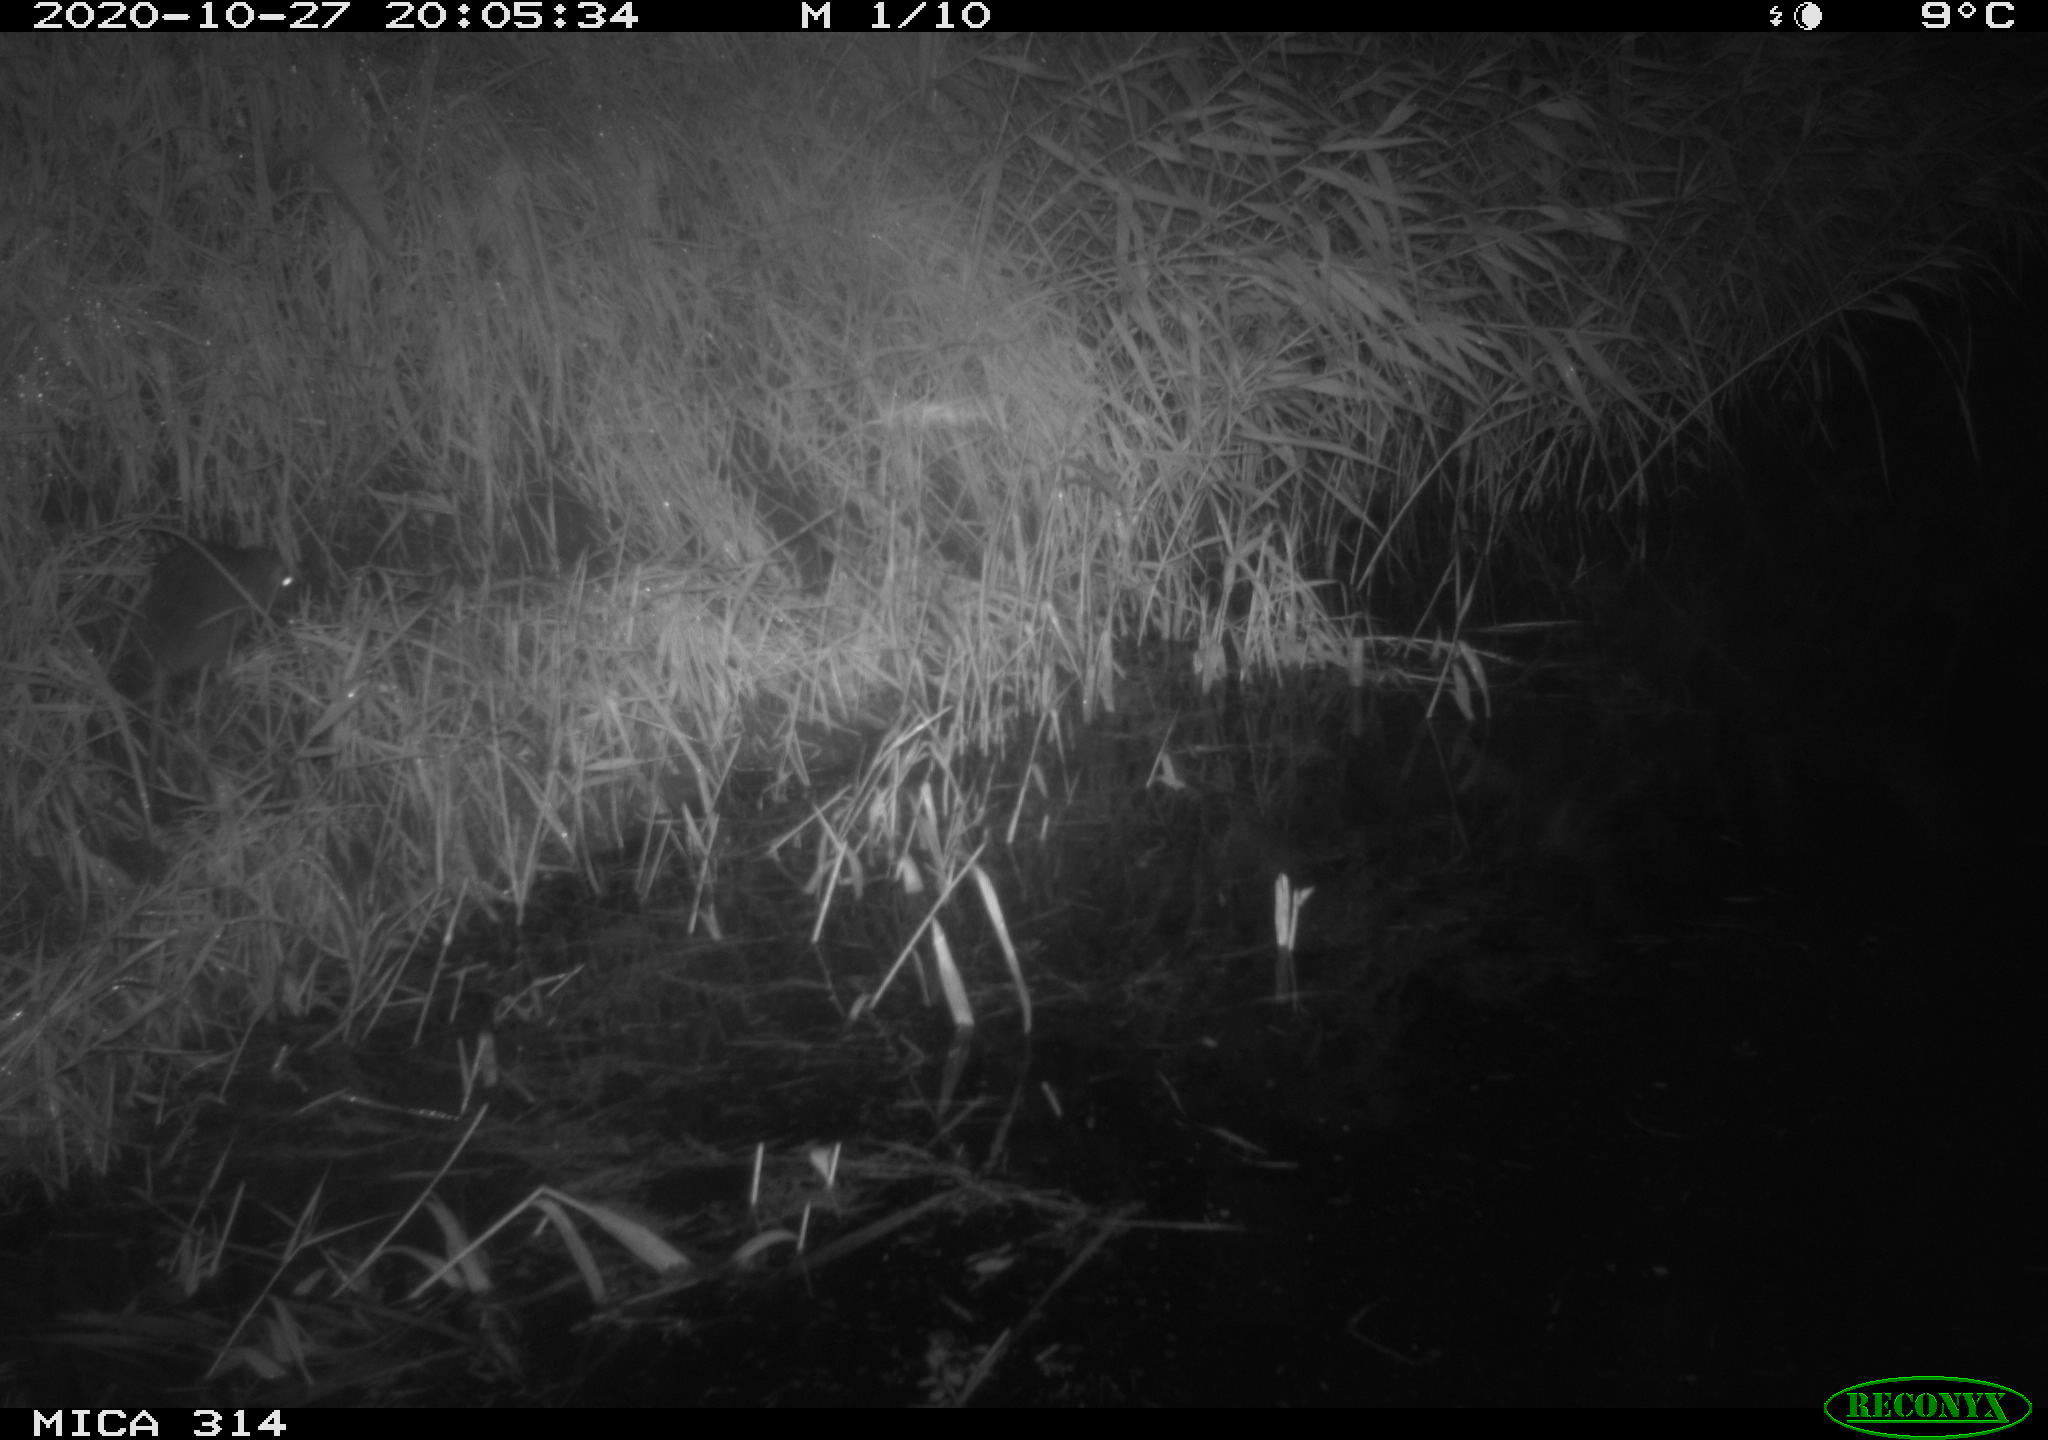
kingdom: Animalia
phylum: Chordata
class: Mammalia
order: Rodentia
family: Muridae
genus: Rattus
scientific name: Rattus norvegicus
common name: Brown rat
